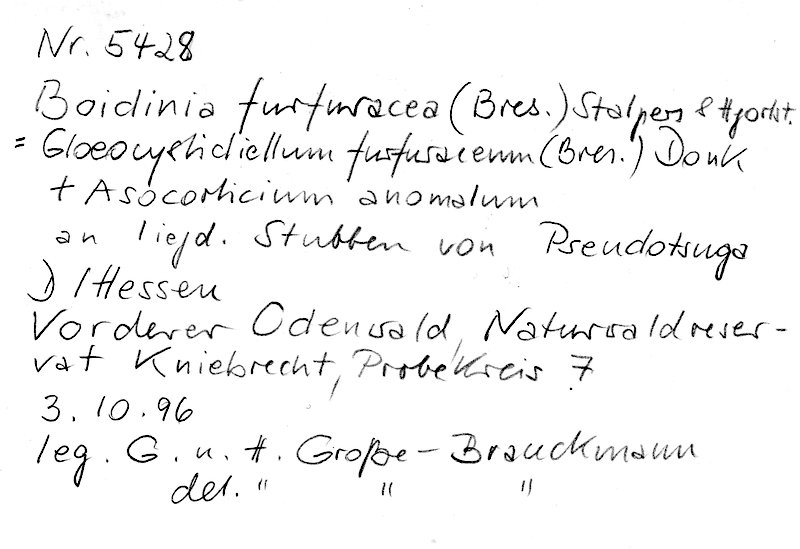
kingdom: Fungi
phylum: Basidiomycota
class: Agaricomycetes
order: Russulales
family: Russulaceae
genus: Boidinia
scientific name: Boidinia furfuracea
